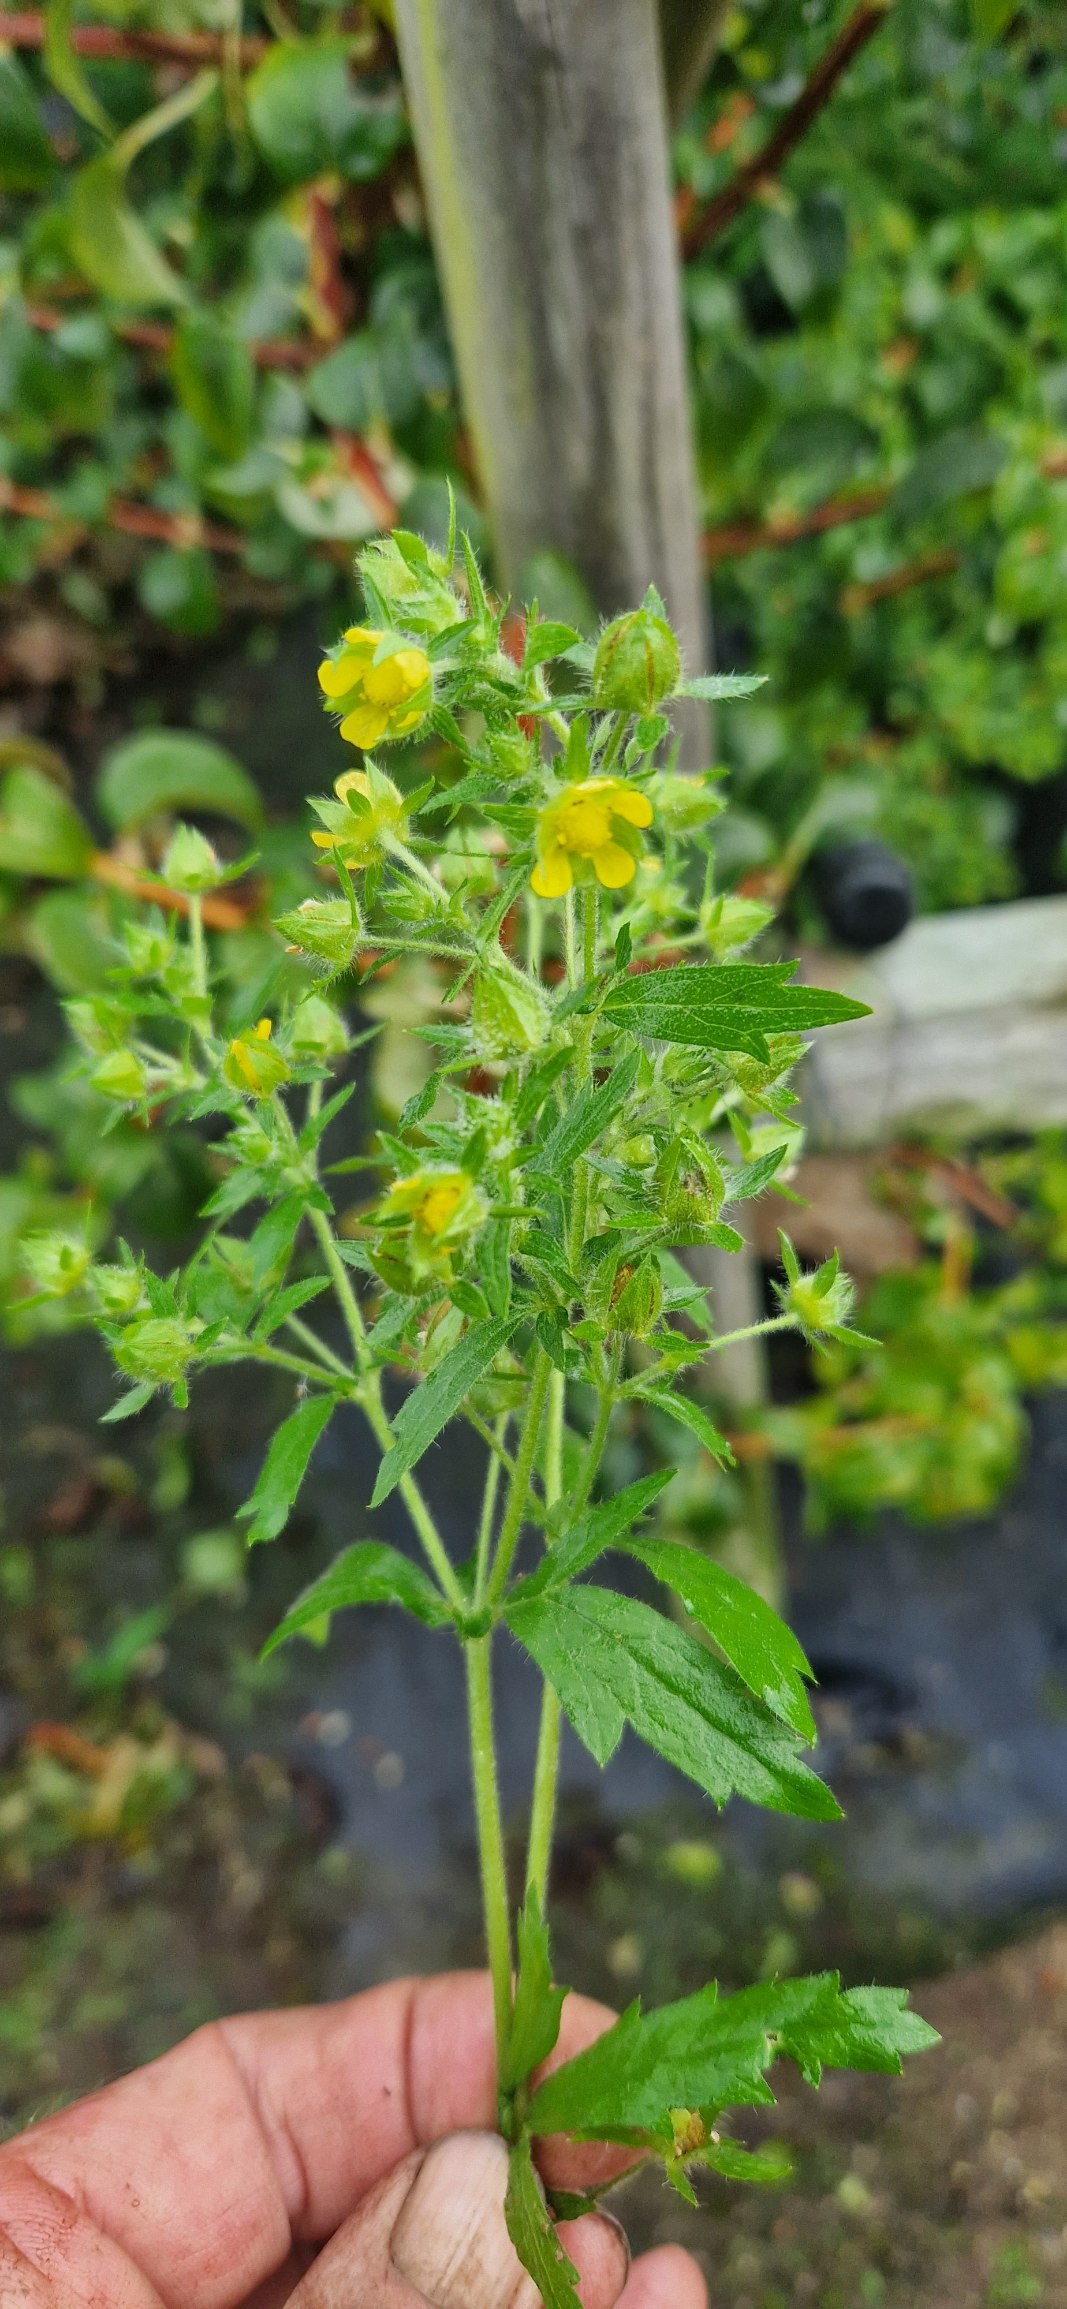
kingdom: Plantae
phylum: Tracheophyta
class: Magnoliopsida
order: Rosales
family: Rosaceae
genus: Potentilla
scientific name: Potentilla norvegica
